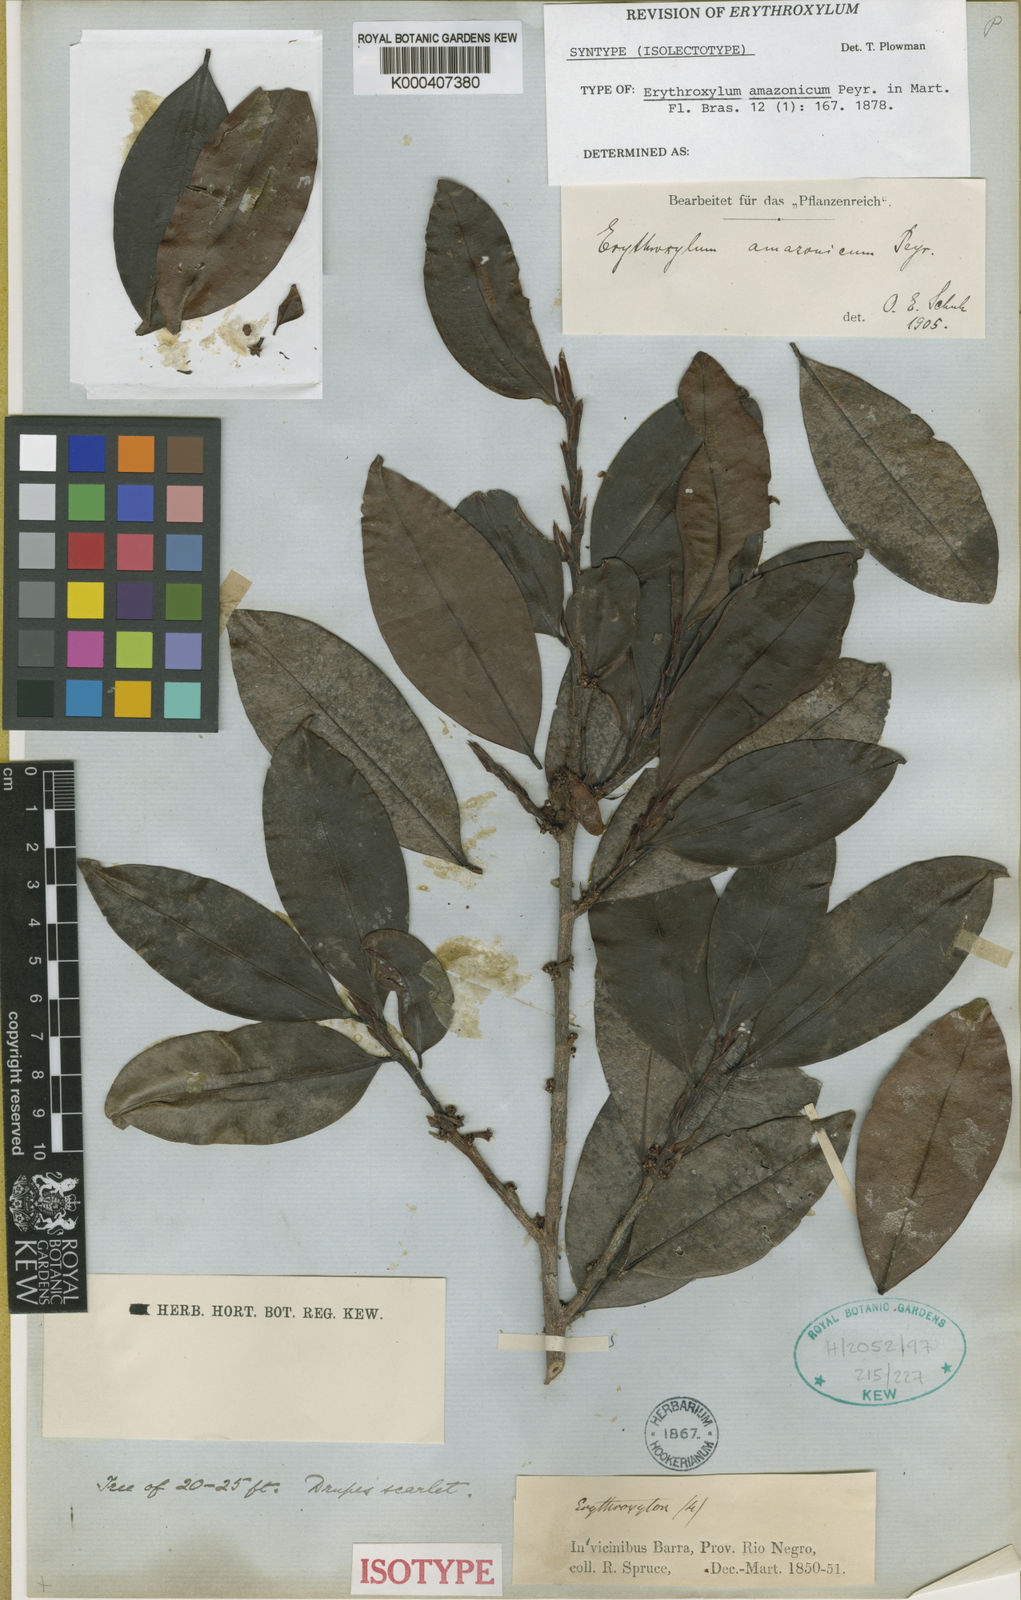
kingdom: Plantae
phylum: Tracheophyta
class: Magnoliopsida
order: Malpighiales
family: Erythroxylaceae
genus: Erythroxylum
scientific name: Erythroxylum amazonicum
